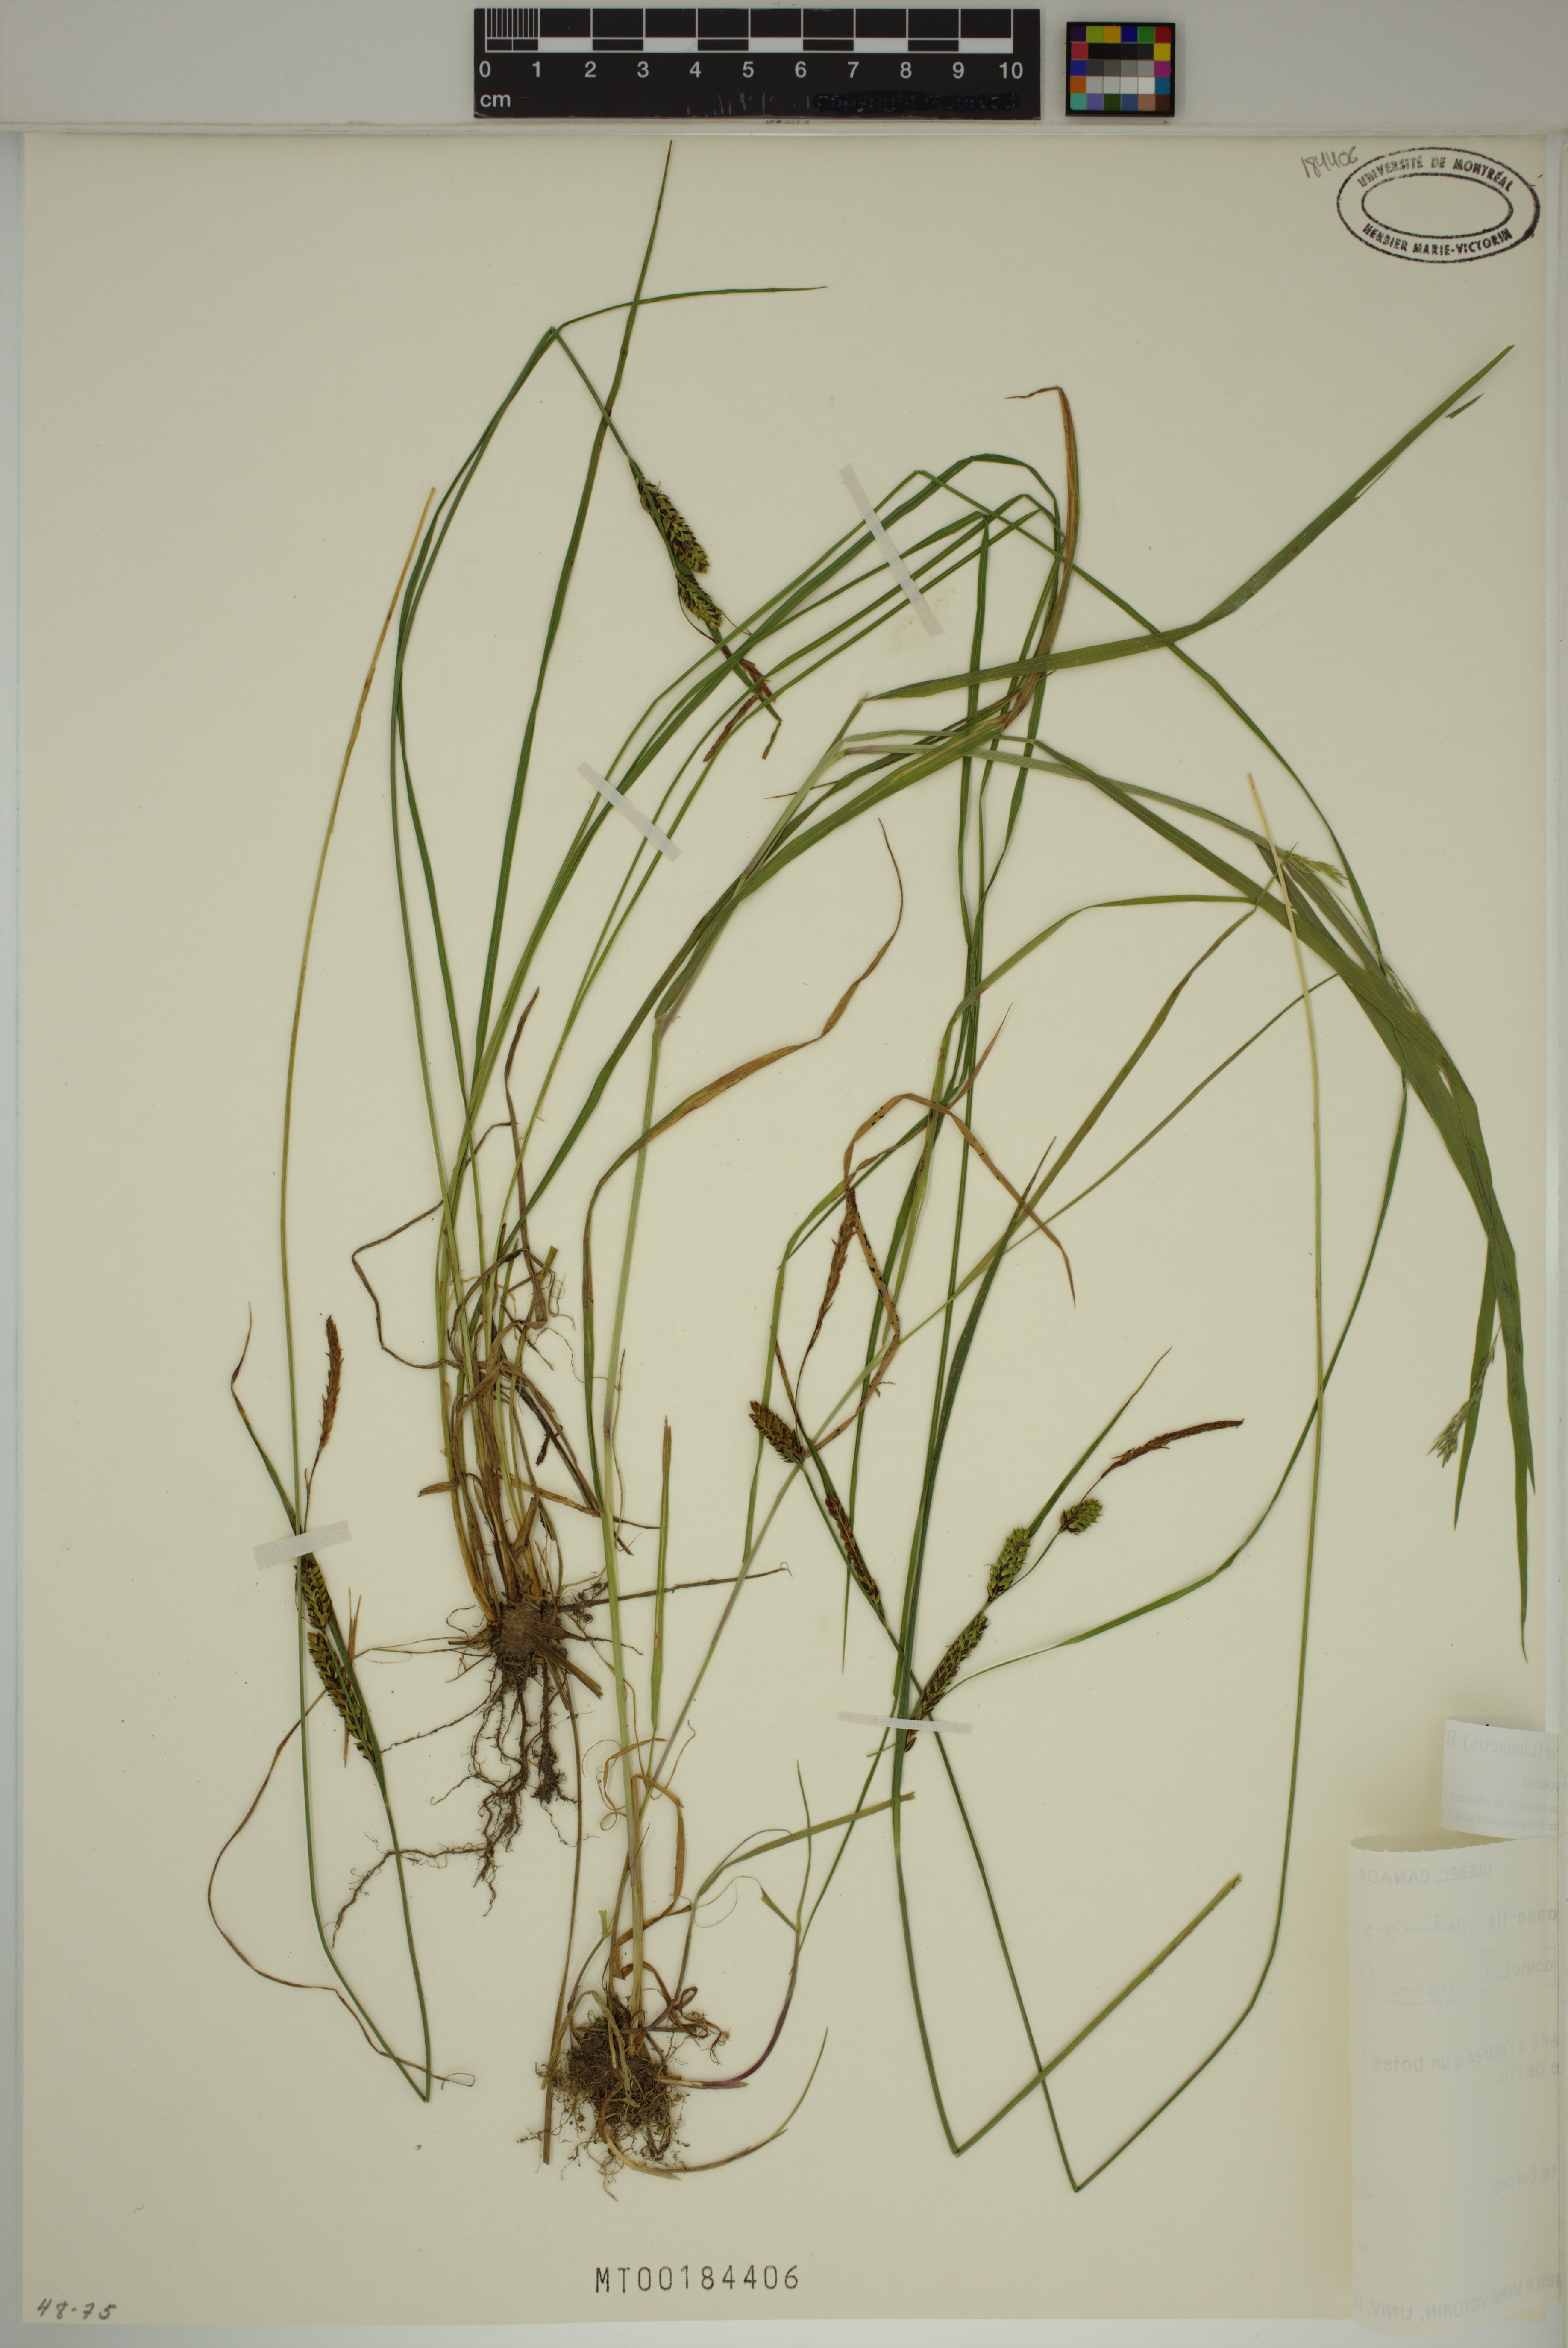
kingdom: Plantae
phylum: Tracheophyta
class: Liliopsida
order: Poales
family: Cyperaceae
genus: Carex
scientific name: Carex nigra
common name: Common sedge
